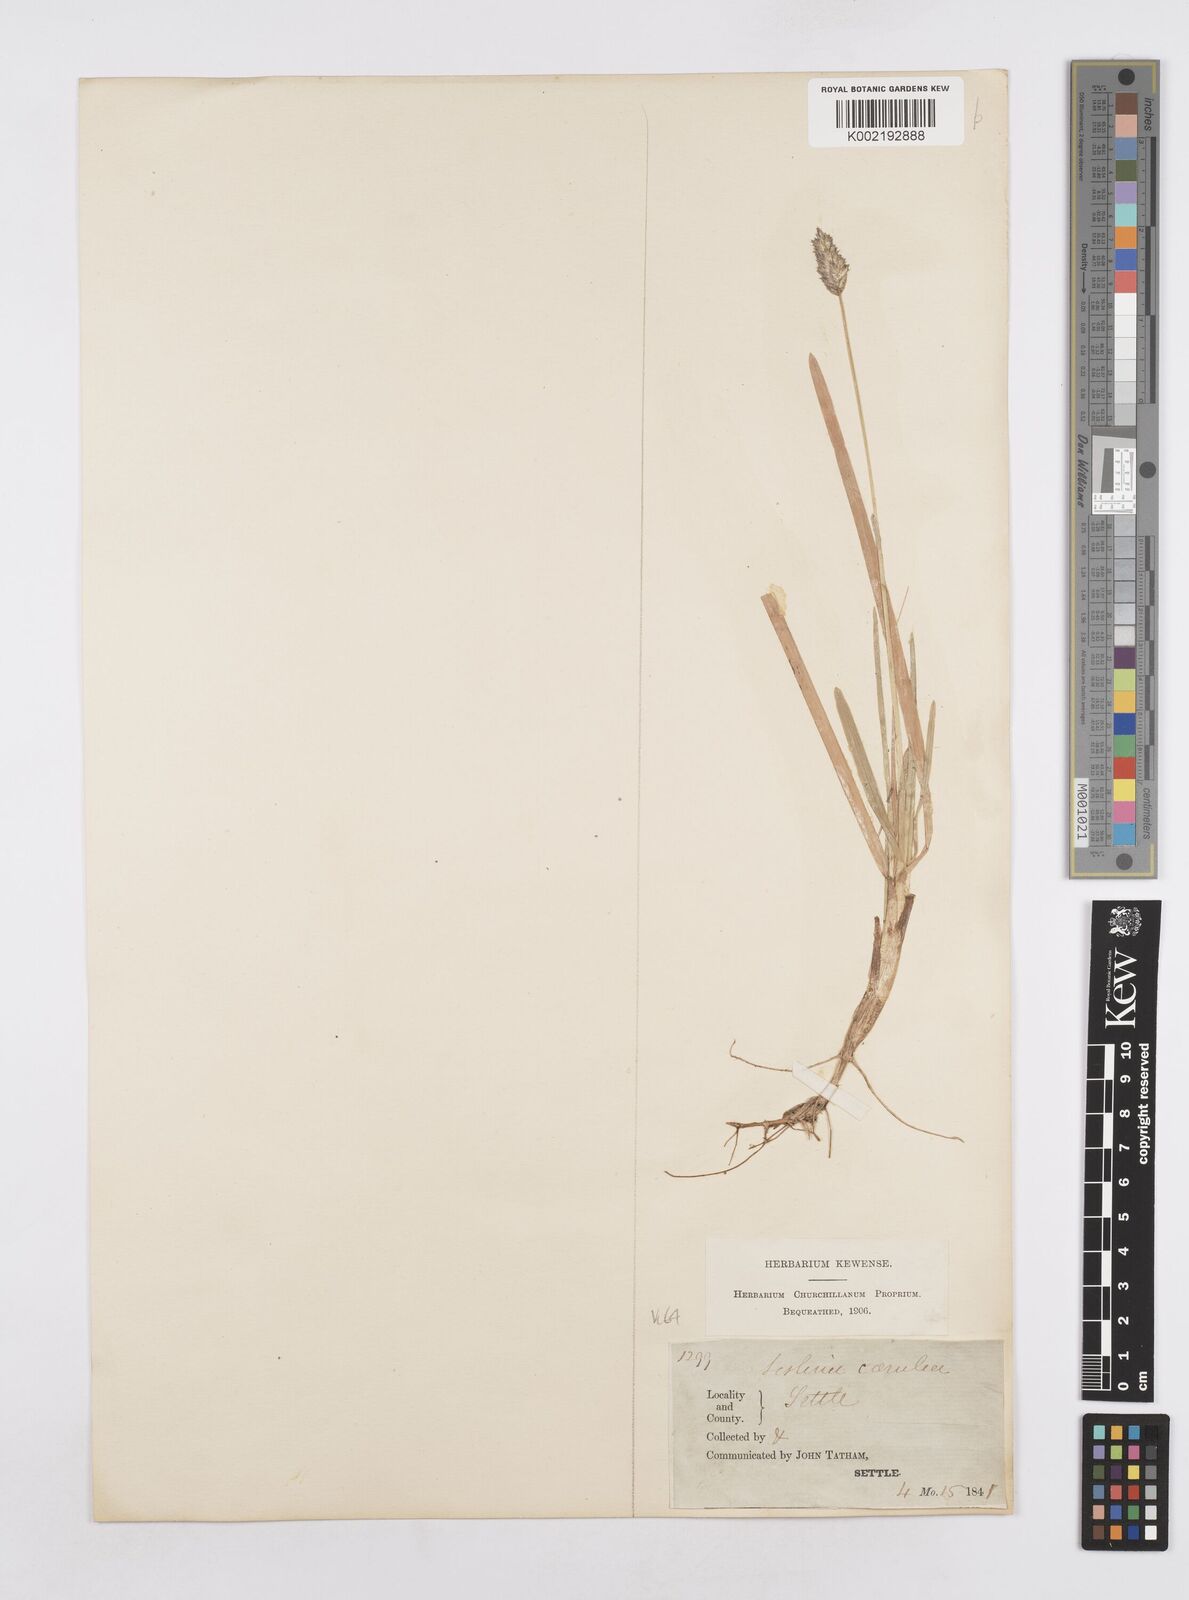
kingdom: Plantae
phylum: Tracheophyta
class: Liliopsida
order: Poales
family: Poaceae
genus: Sesleria
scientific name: Sesleria caerulea
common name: Blue moor-grass
